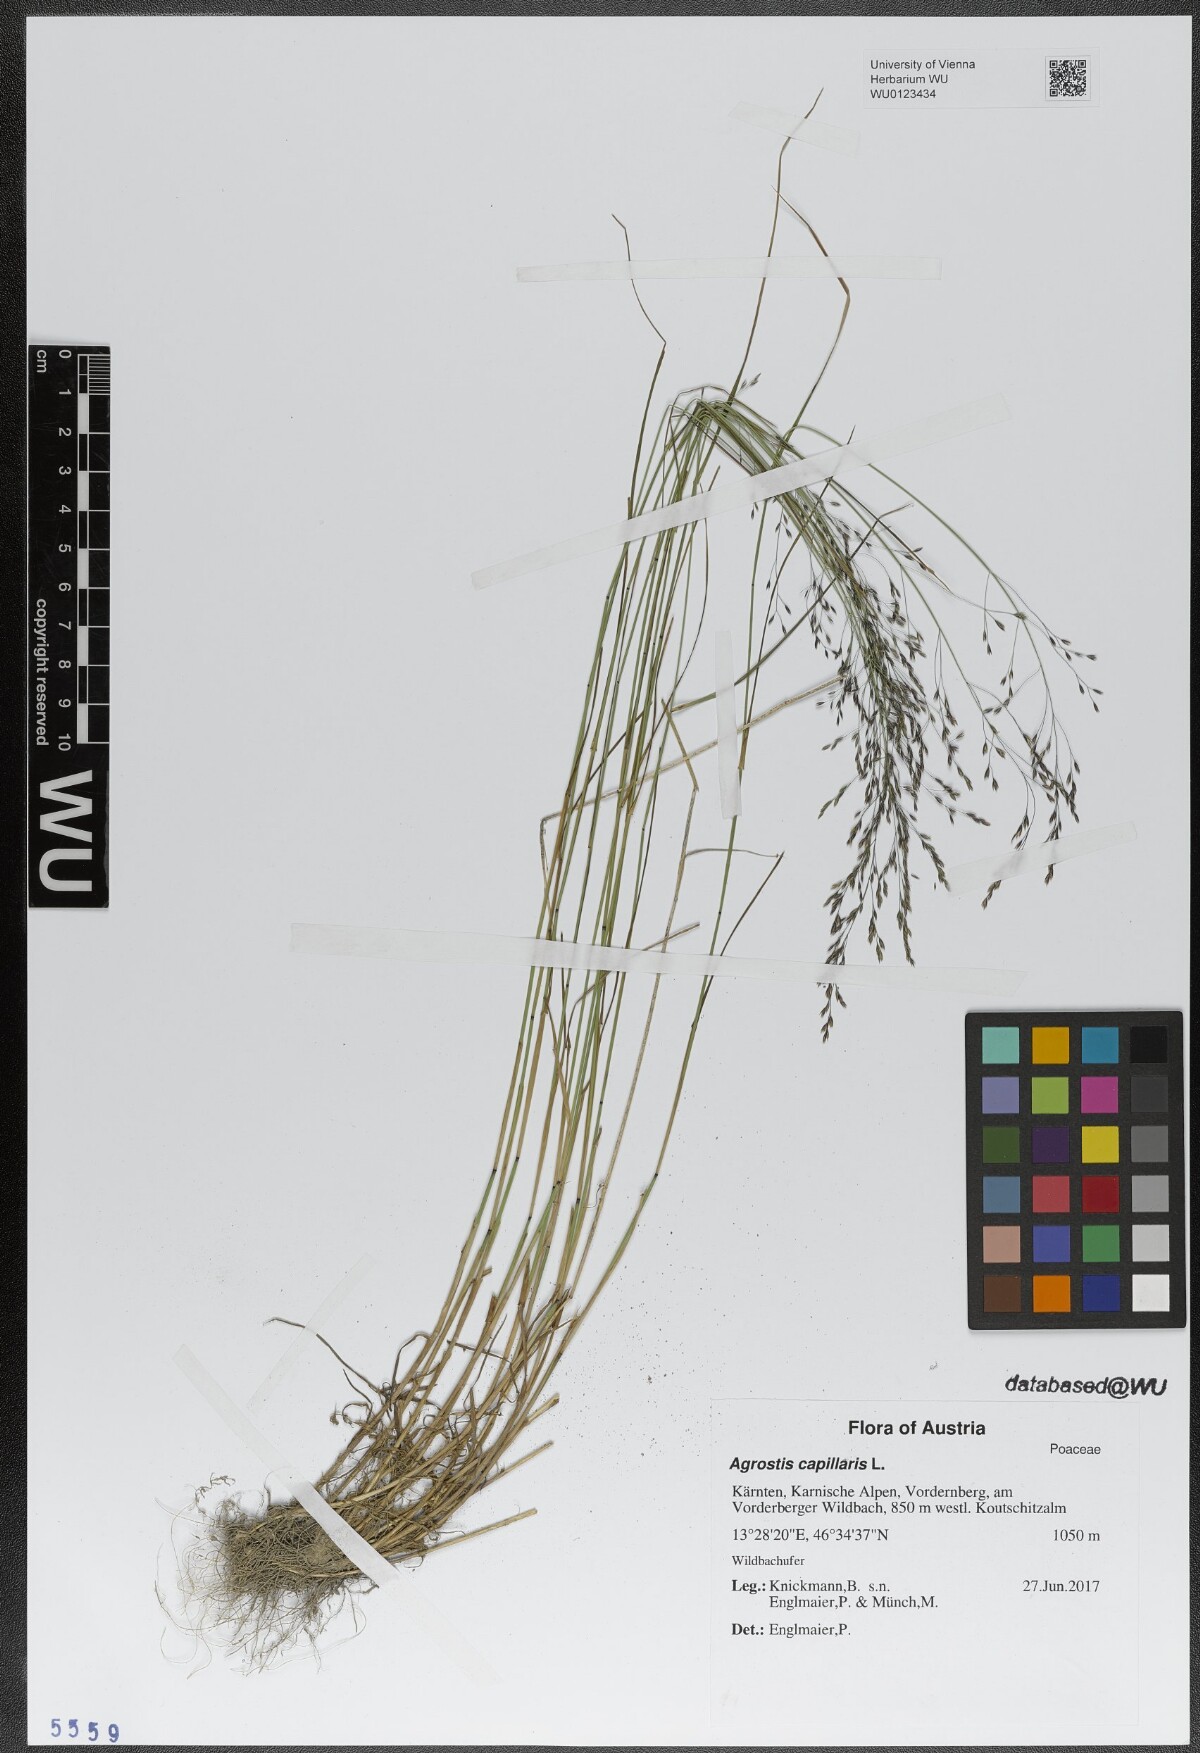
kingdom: Plantae
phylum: Tracheophyta
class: Liliopsida
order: Poales
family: Poaceae
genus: Agrostis
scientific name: Agrostis capillaris
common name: Colonial bentgrass
